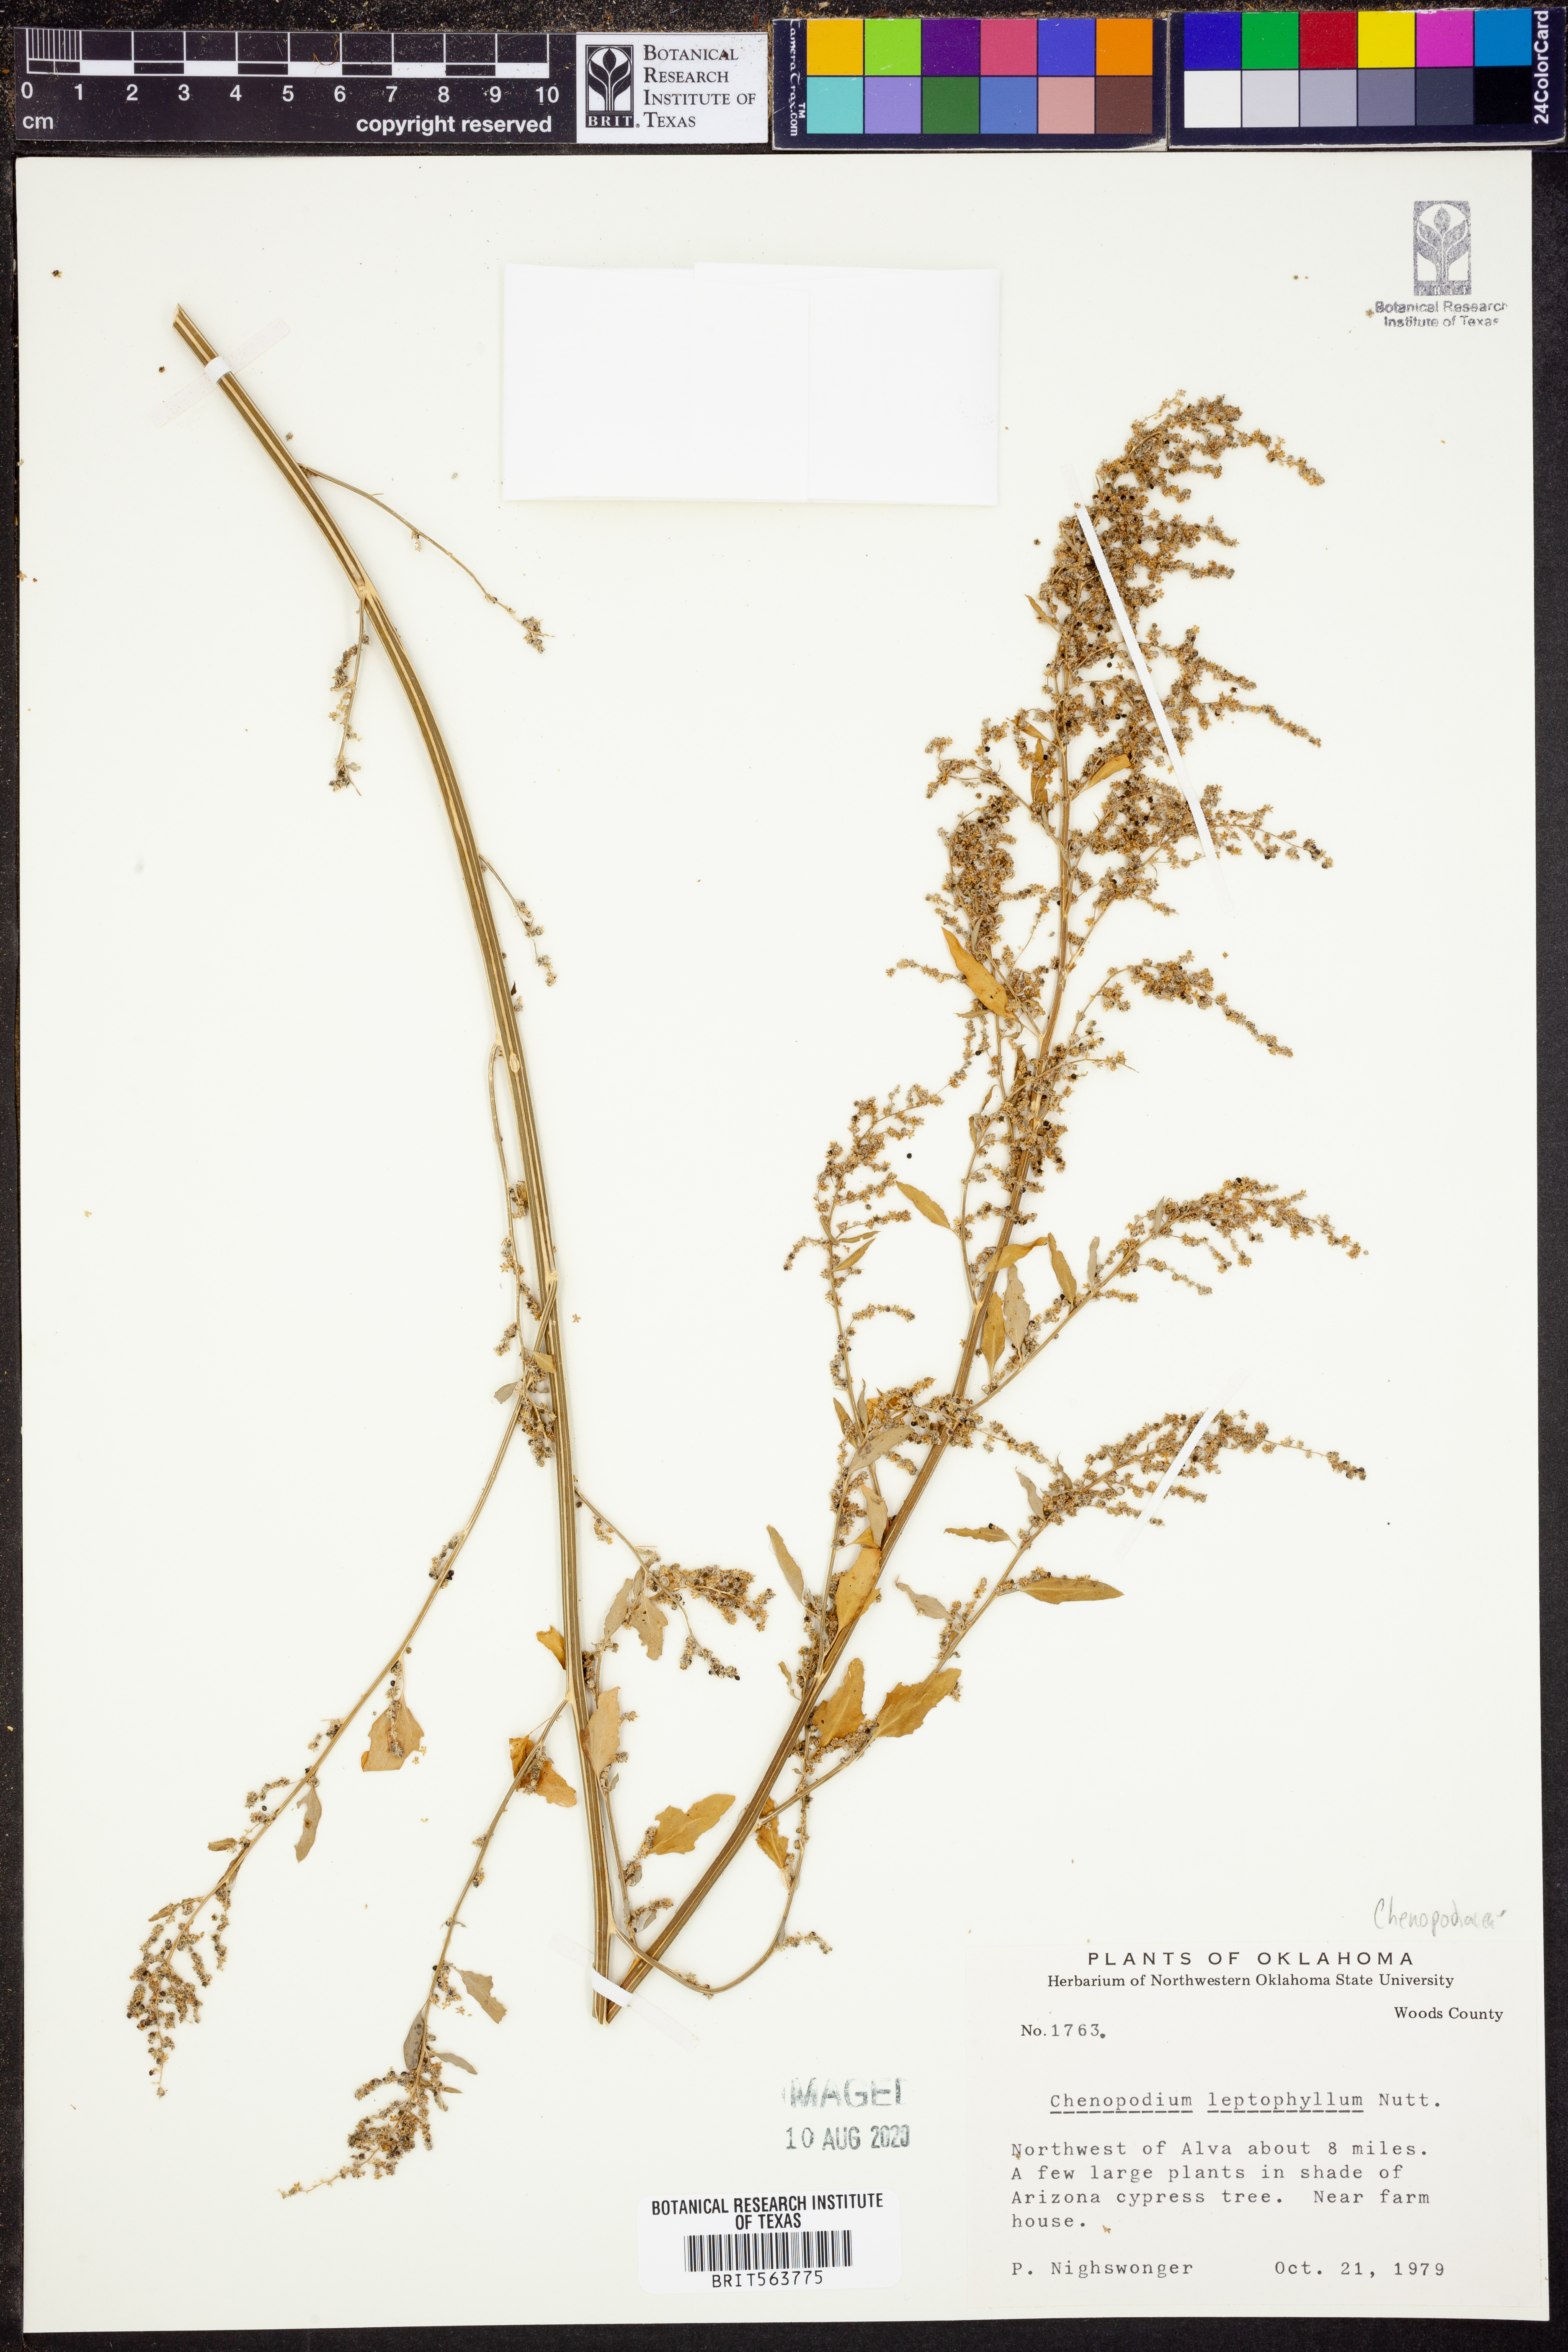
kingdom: Plantae
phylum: Tracheophyta
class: Magnoliopsida
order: Caryophyllales
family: Amaranthaceae
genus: Chenopodium
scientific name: Chenopodium leptophyllum
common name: Narrow-leaf goosefoot
